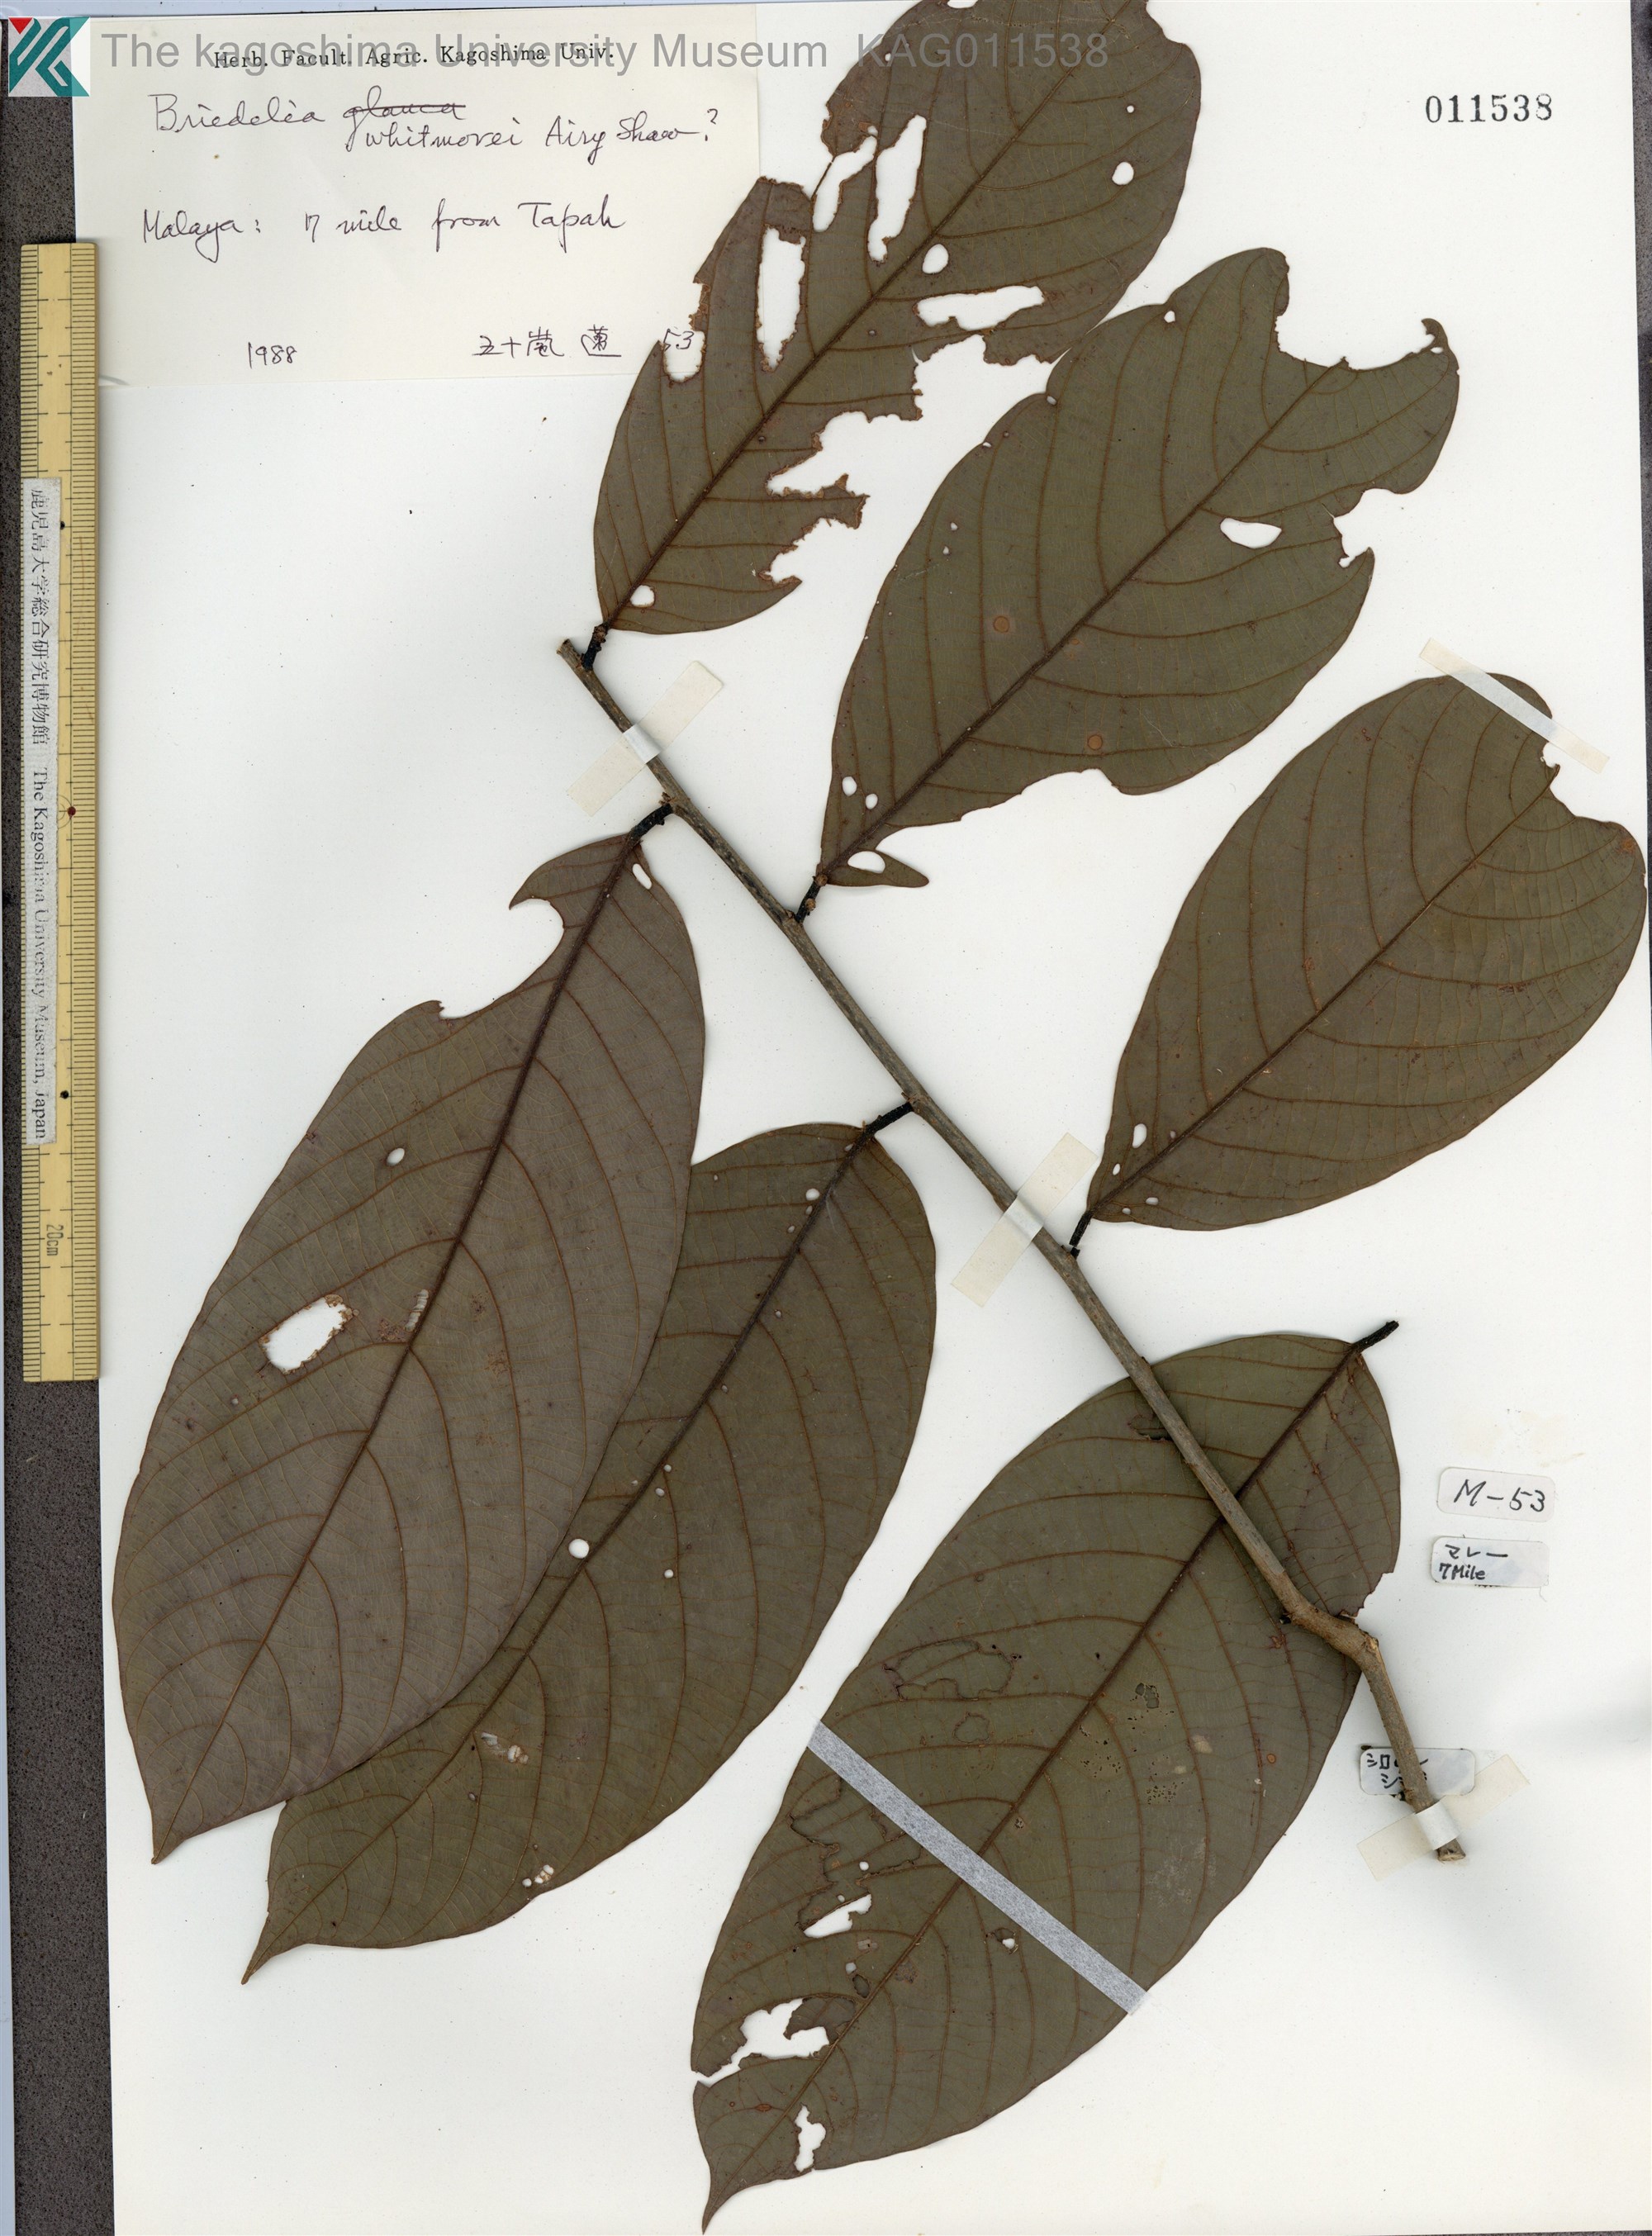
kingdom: Plantae
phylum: Tracheophyta
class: Magnoliopsida
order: Malpighiales
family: Phyllanthaceae
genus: Bridelia
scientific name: Bridelia whitmorei
